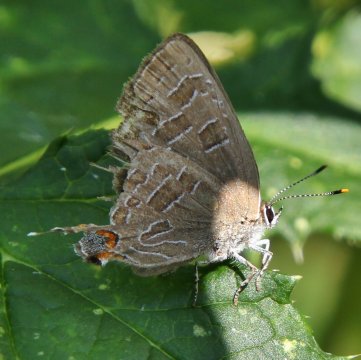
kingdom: Animalia
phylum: Arthropoda
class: Insecta
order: Lepidoptera
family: Lycaenidae
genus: Satyrium
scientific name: Satyrium liparops
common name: Striped Hairstreak
